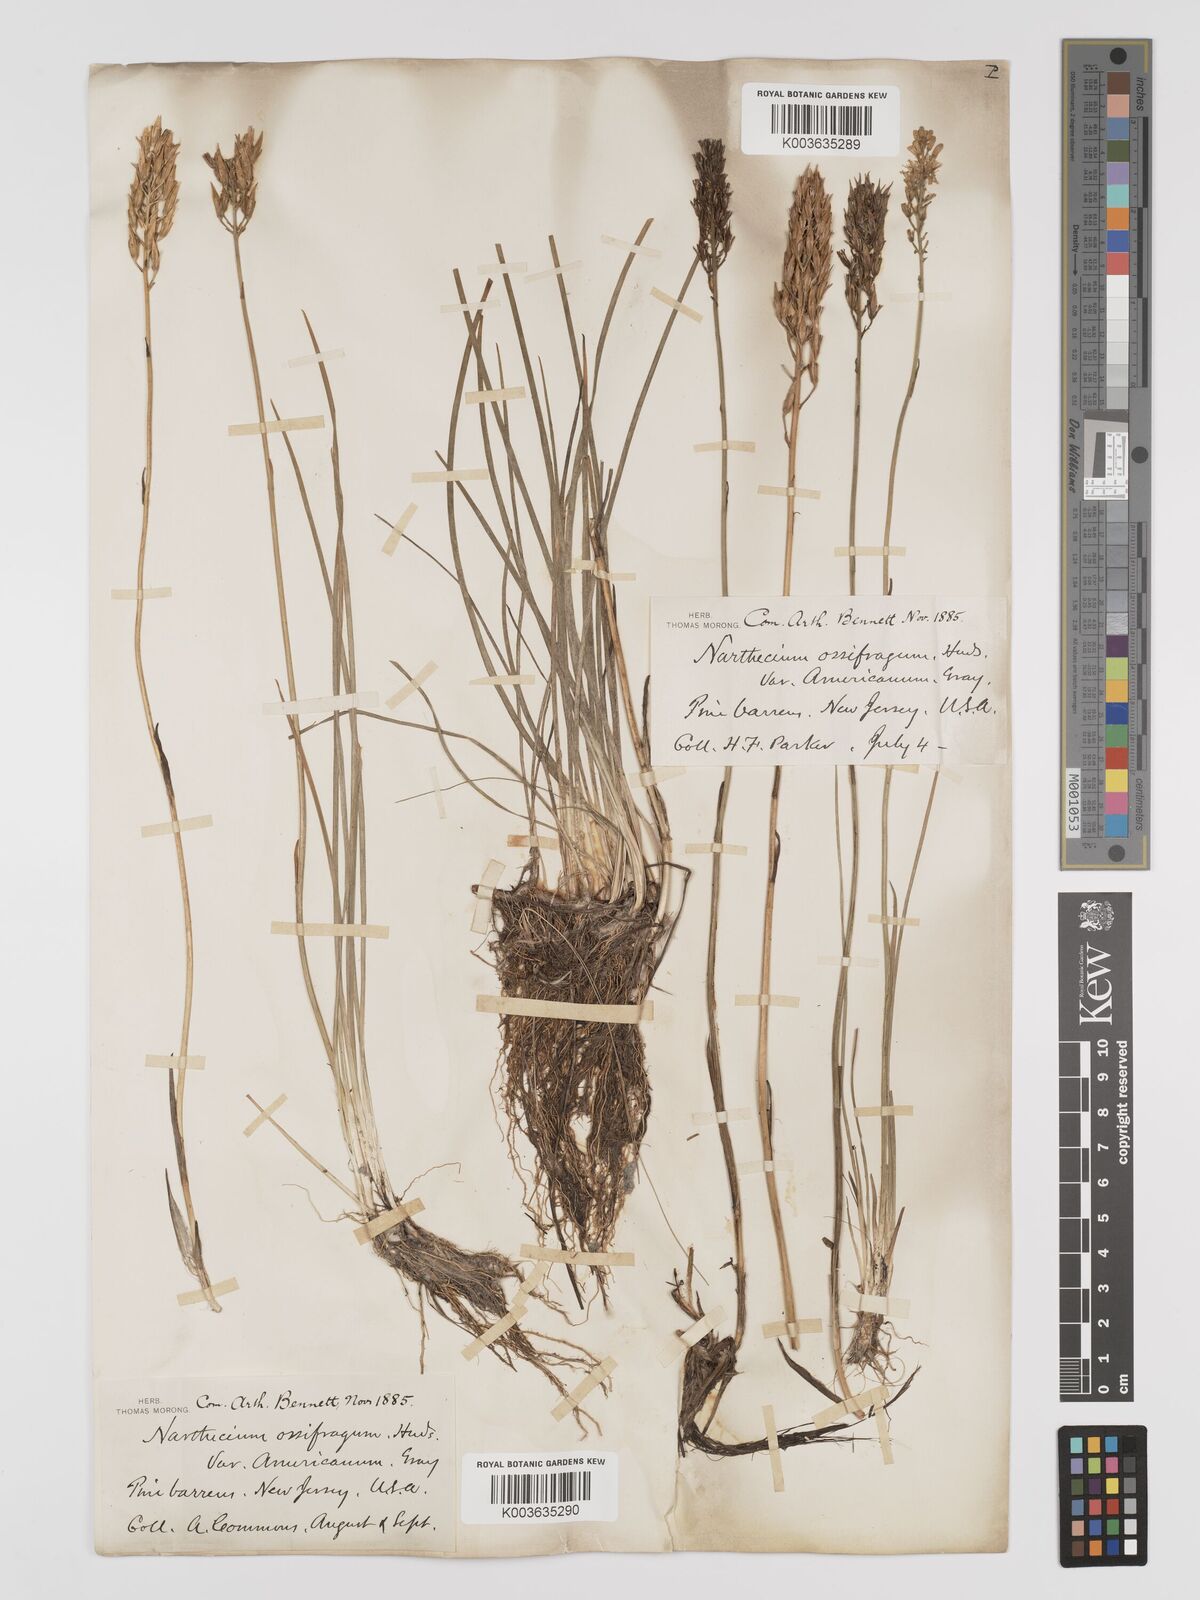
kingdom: Plantae
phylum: Tracheophyta
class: Liliopsida
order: Dioscoreales
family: Nartheciaceae
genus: Narthecium
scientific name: Narthecium americanum
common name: Bog-asphodel
